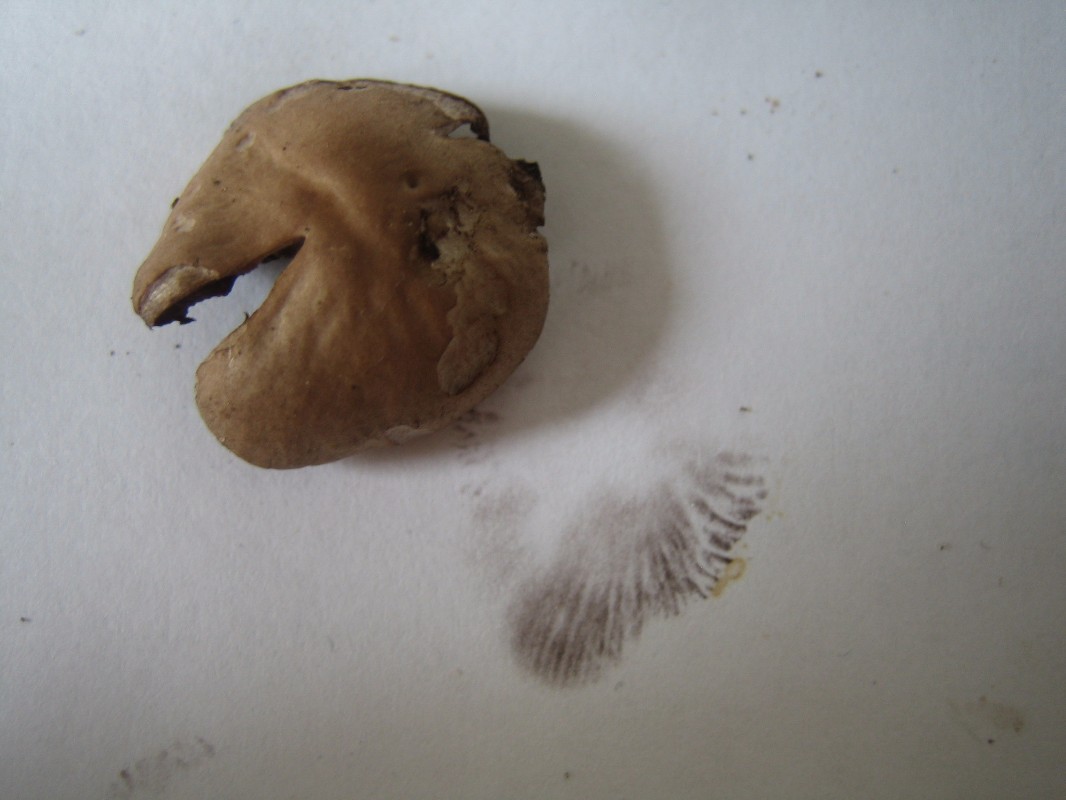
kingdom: Fungi
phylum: Basidiomycota
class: Agaricomycetes
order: Agaricales
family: Bolbitiaceae
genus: Panaeolina
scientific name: Panaeolina foenisecii
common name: høslætsvamp
